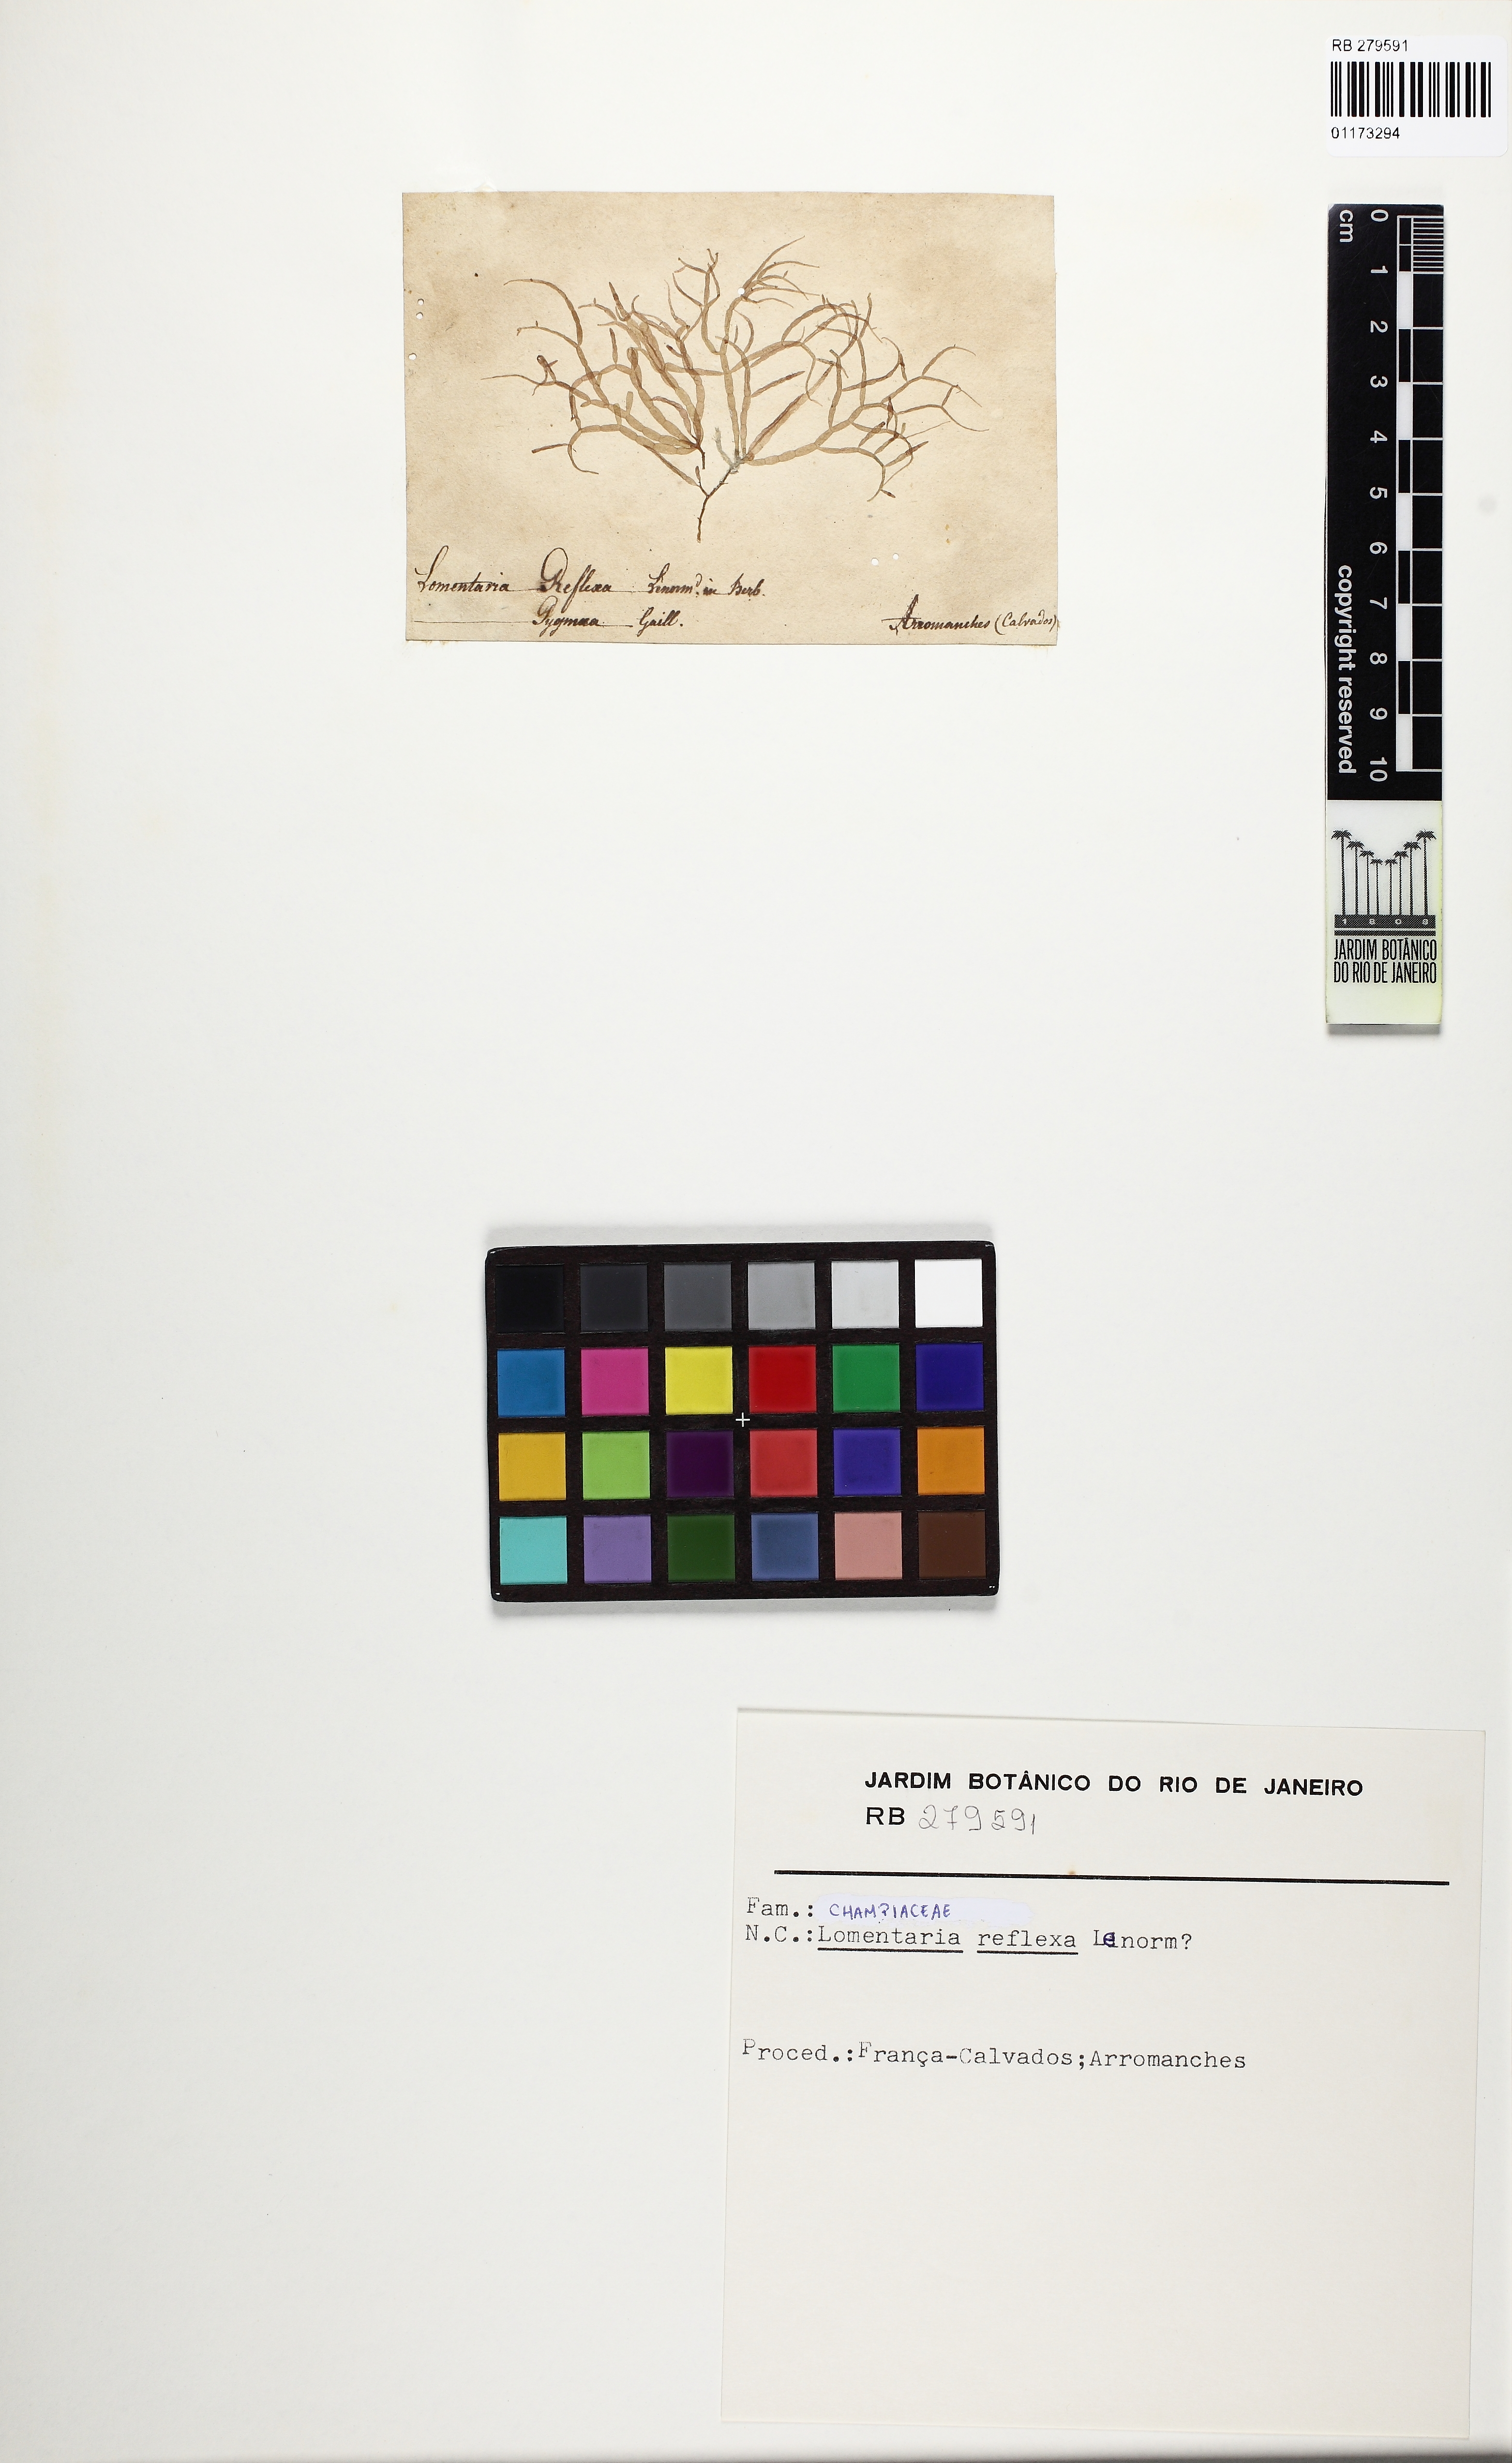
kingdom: Plantae
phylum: Rhodophyta
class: Florideophyceae
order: Rhodymeniales
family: Champiaceae
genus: Gastroclonium
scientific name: Gastroclonium reflexum
